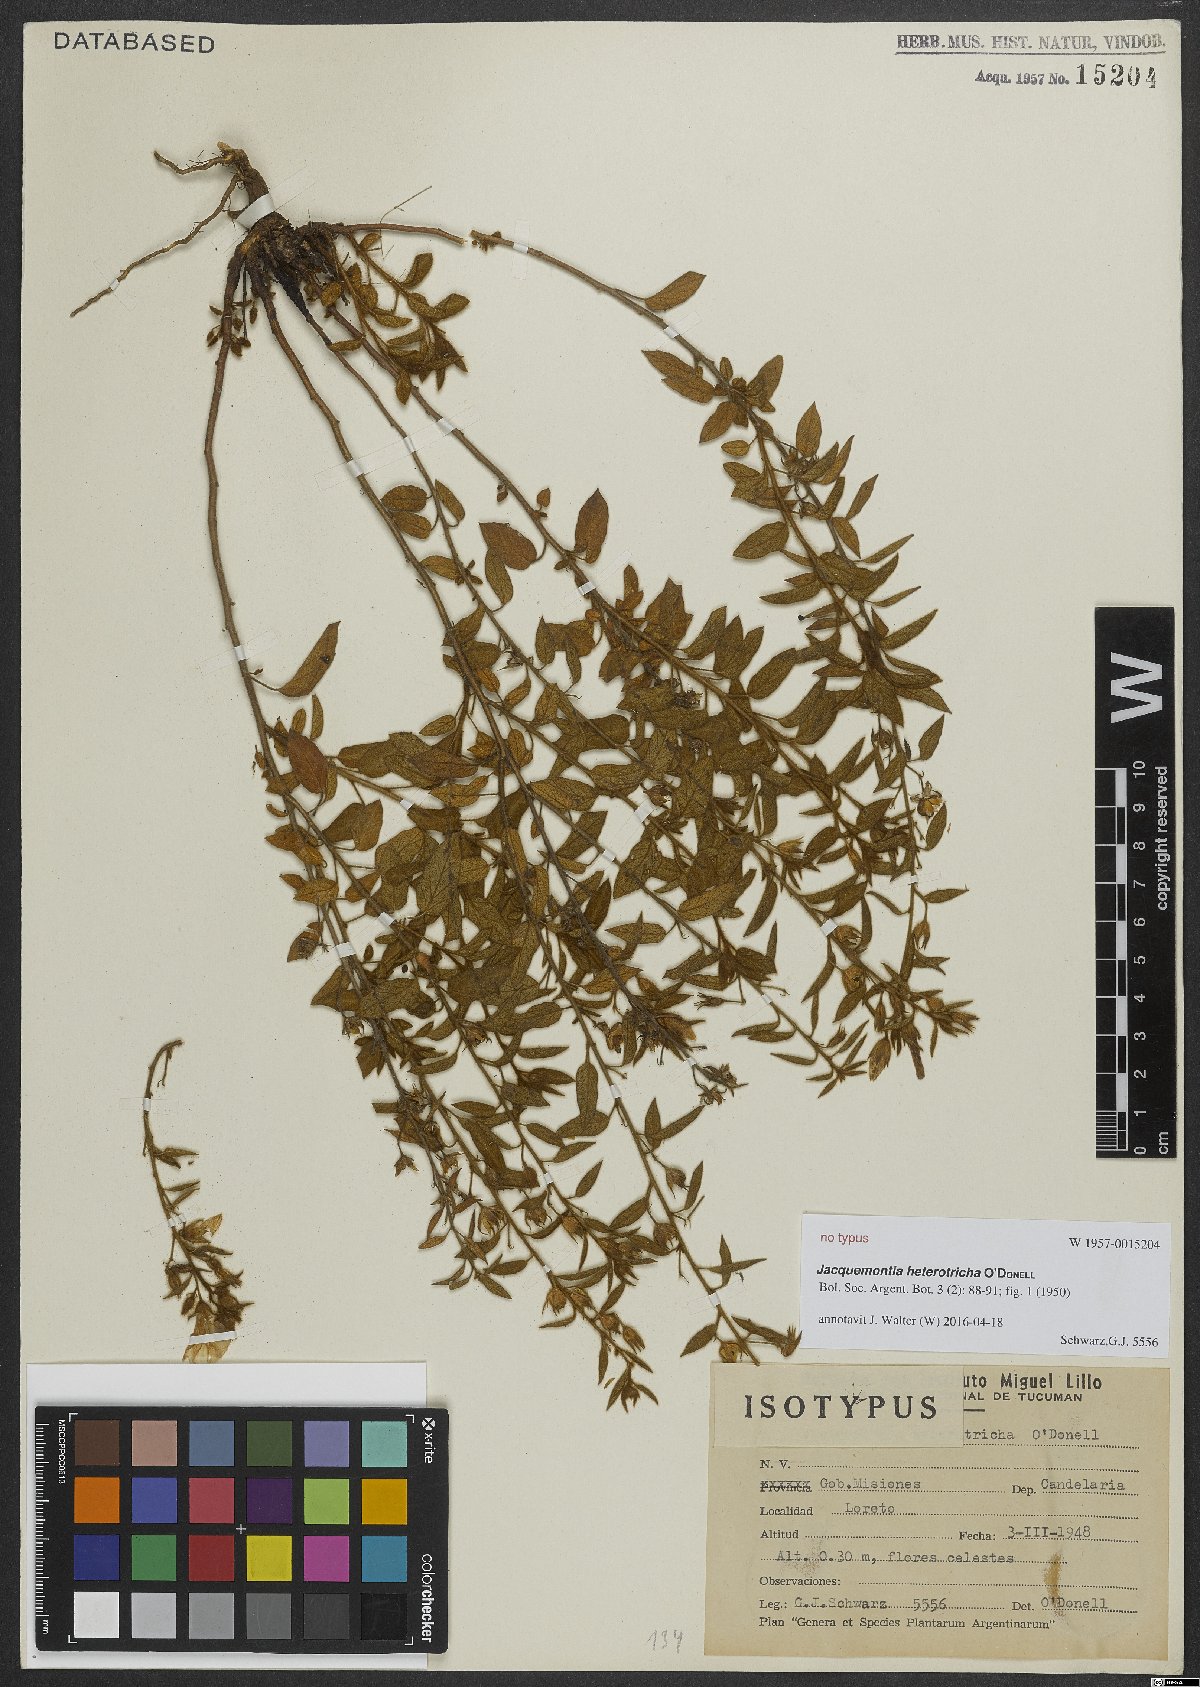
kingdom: Plantae
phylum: Tracheophyta
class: Magnoliopsida
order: Solanales
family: Convolvulaceae
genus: Jacquemontia
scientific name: Jacquemontia heterotricha
